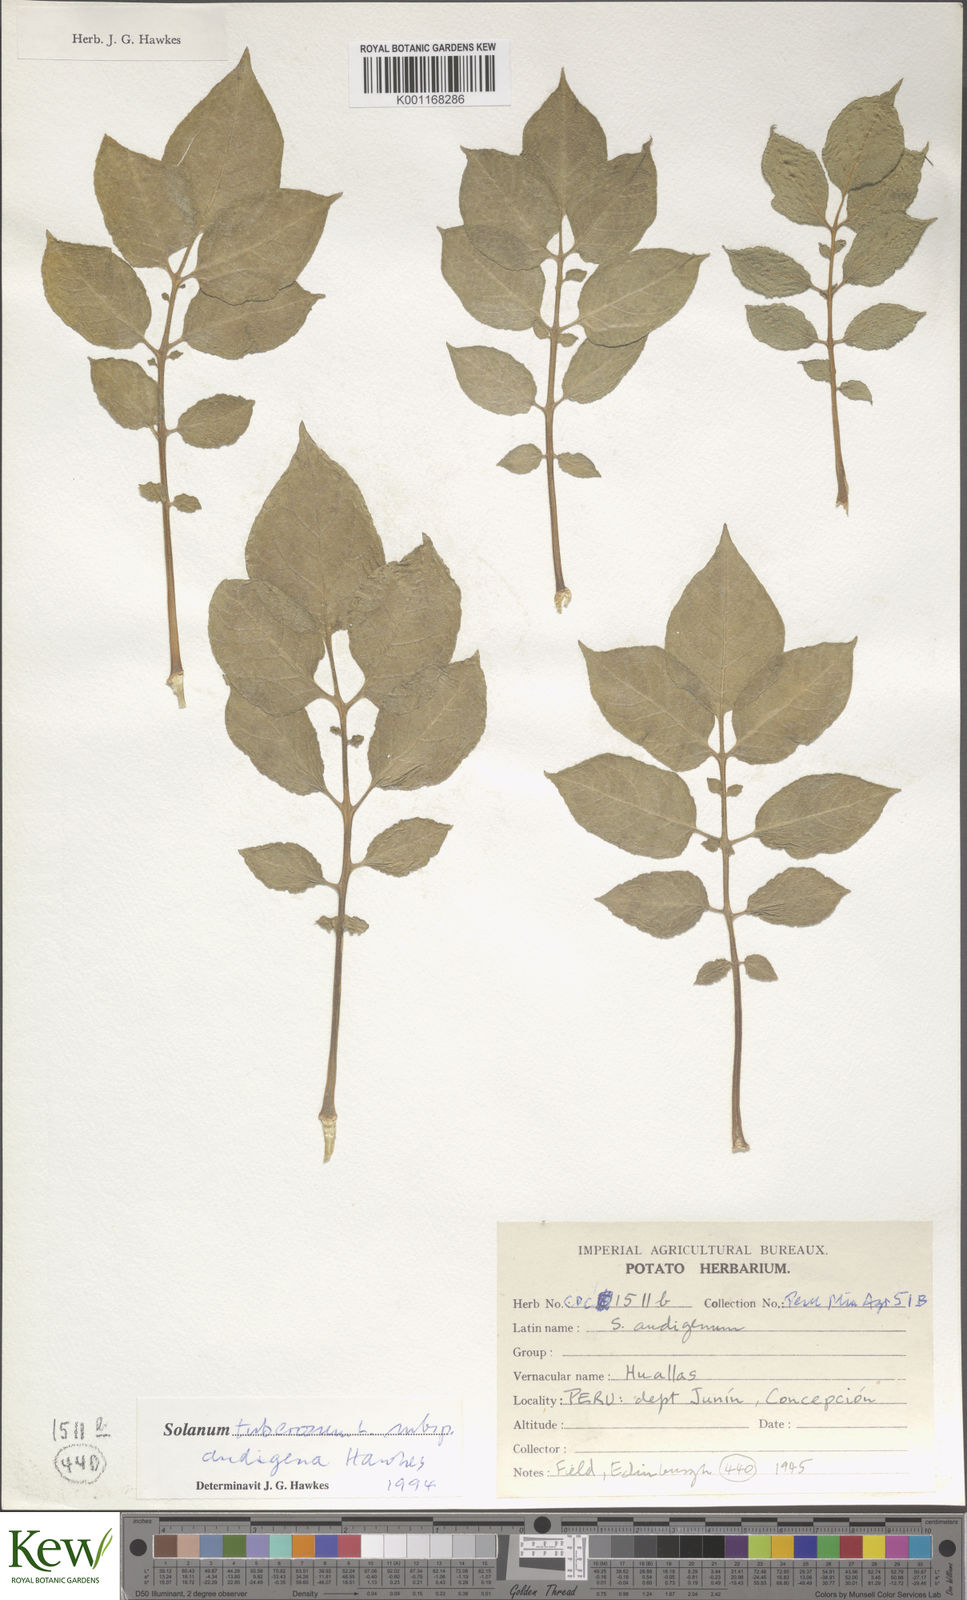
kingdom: Plantae
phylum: Tracheophyta
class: Magnoliopsida
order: Solanales
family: Solanaceae
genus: Solanum
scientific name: Solanum tuberosum
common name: Potato
